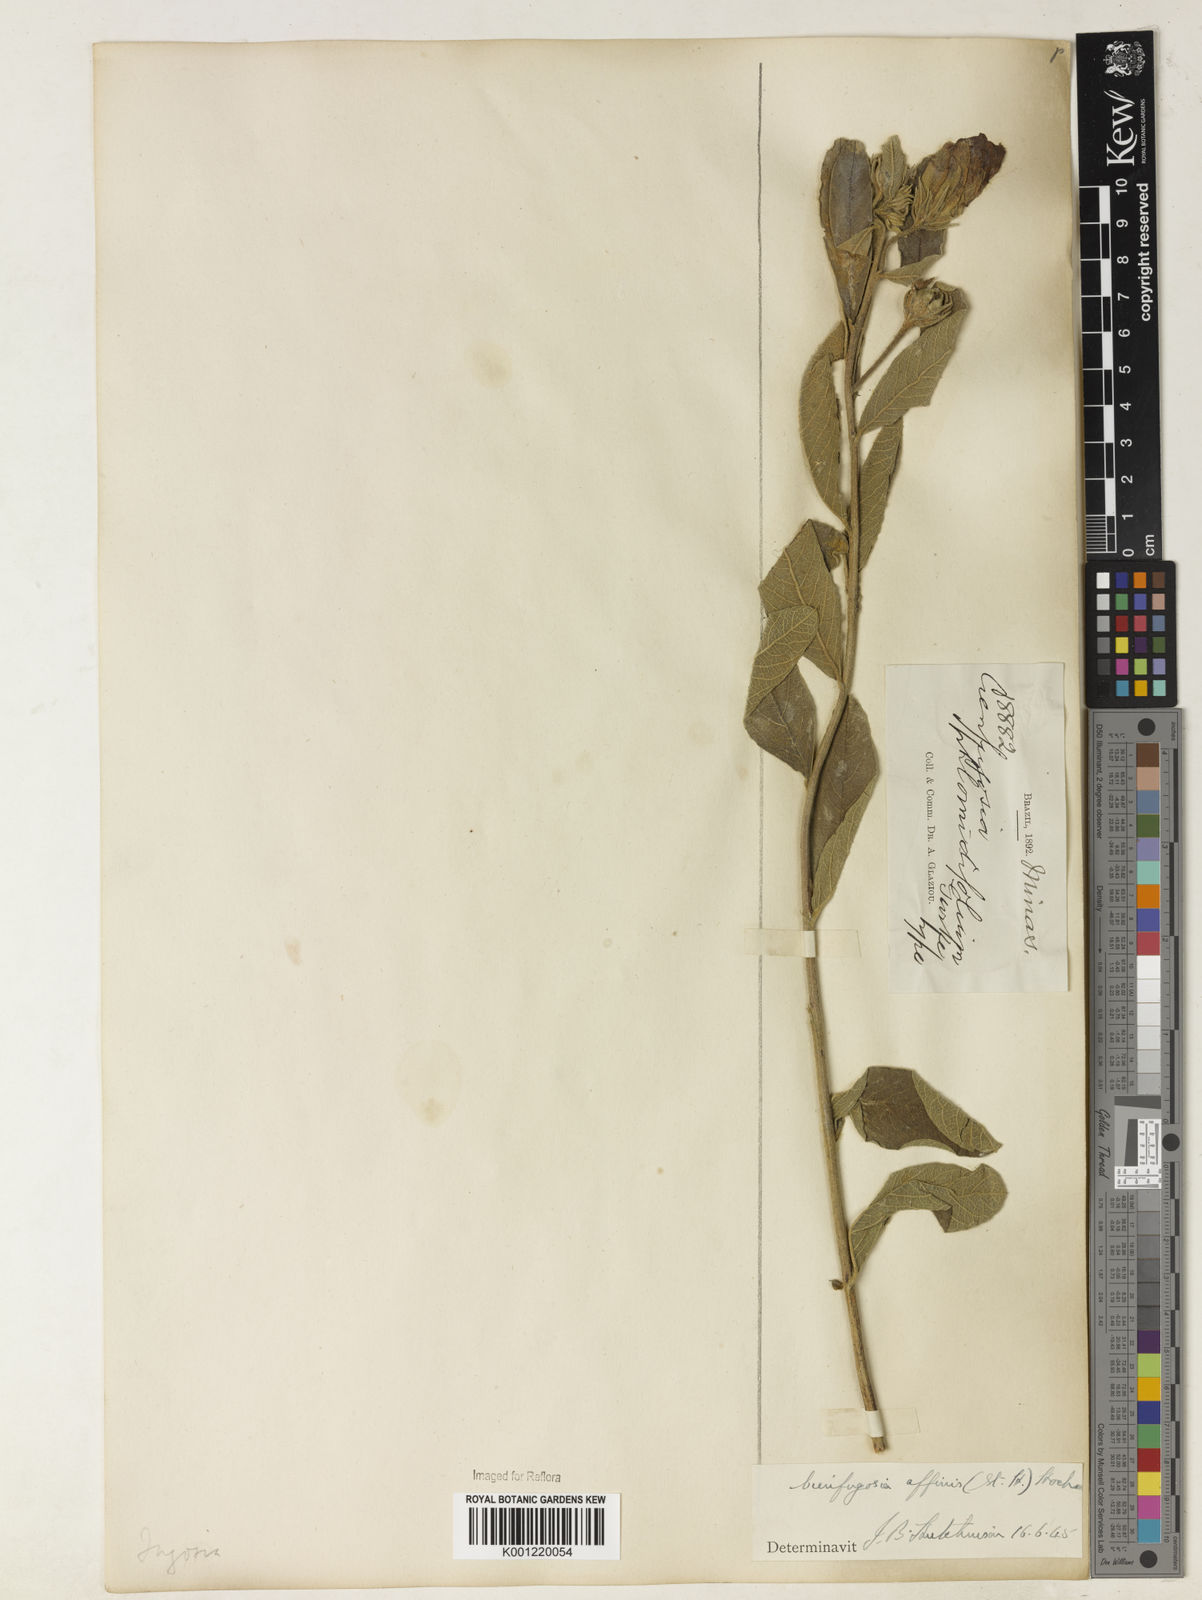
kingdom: Plantae
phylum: Tracheophyta
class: Magnoliopsida
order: Malvales
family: Malvaceae
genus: Cienfuegosia
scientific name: Cienfuegosia affinis
